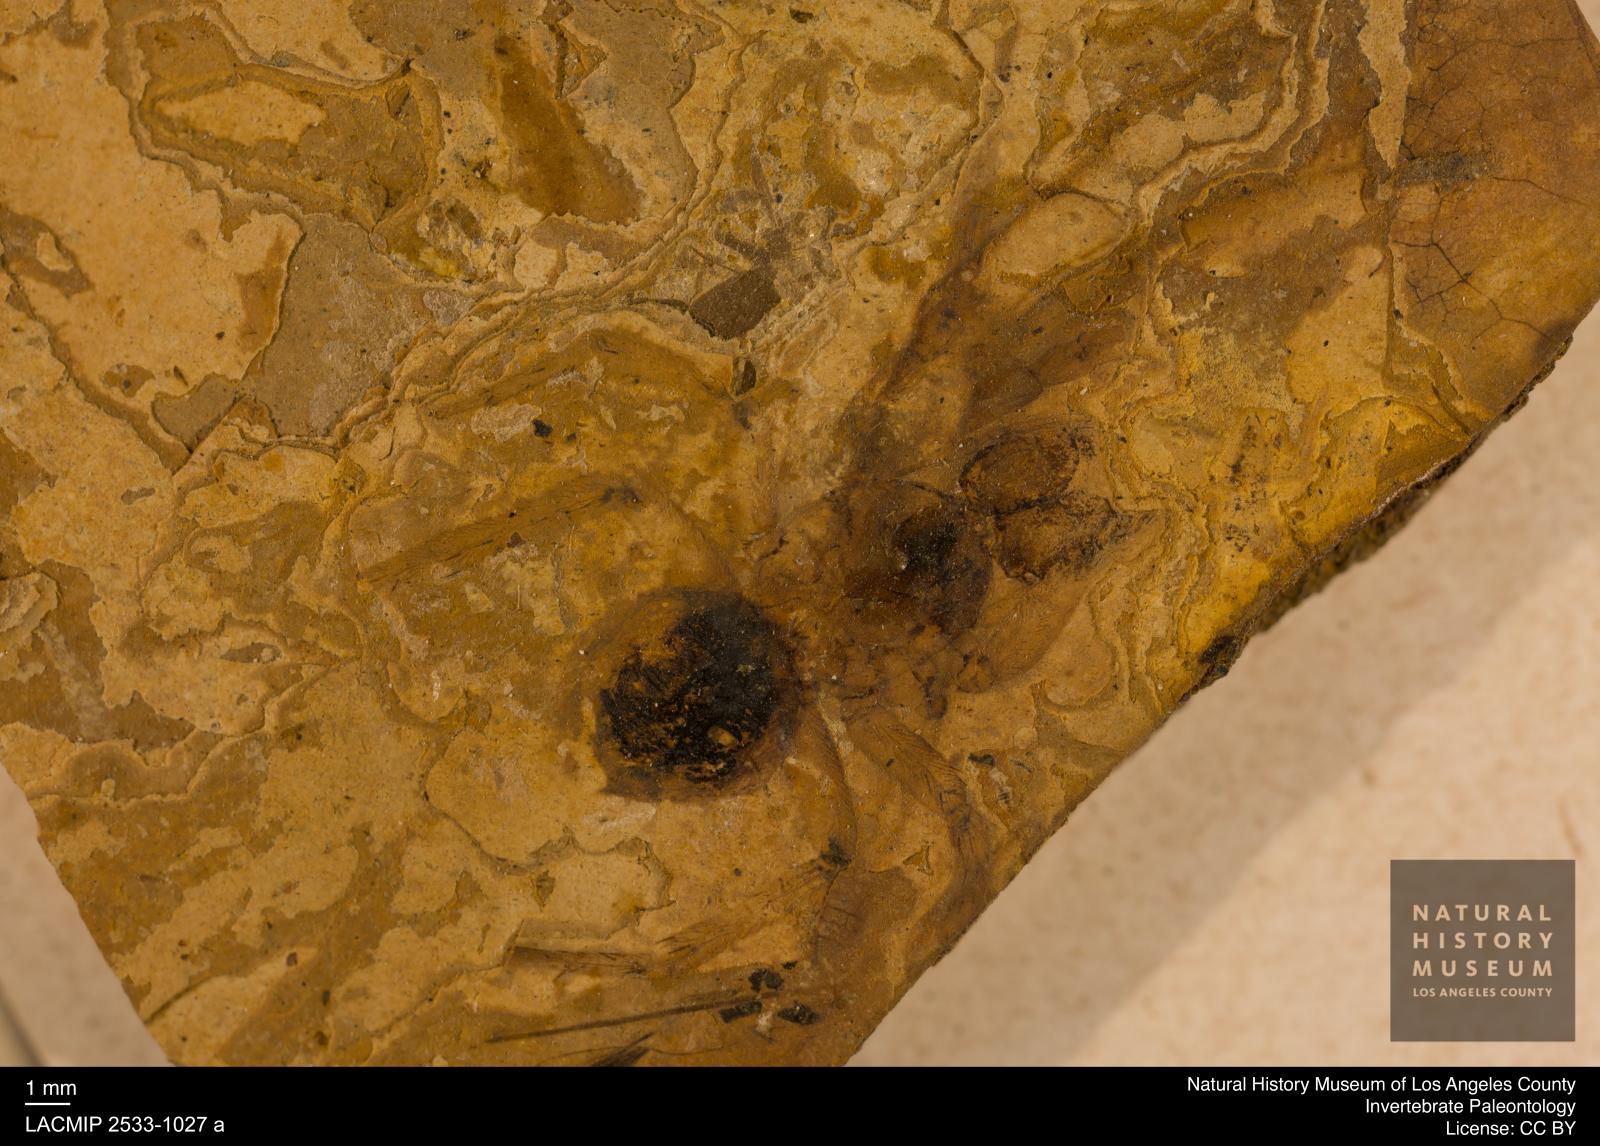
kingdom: Animalia
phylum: Arthropoda
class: Arachnida
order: Araneae
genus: Elvina
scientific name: Elvina Argyroneta antiqua
